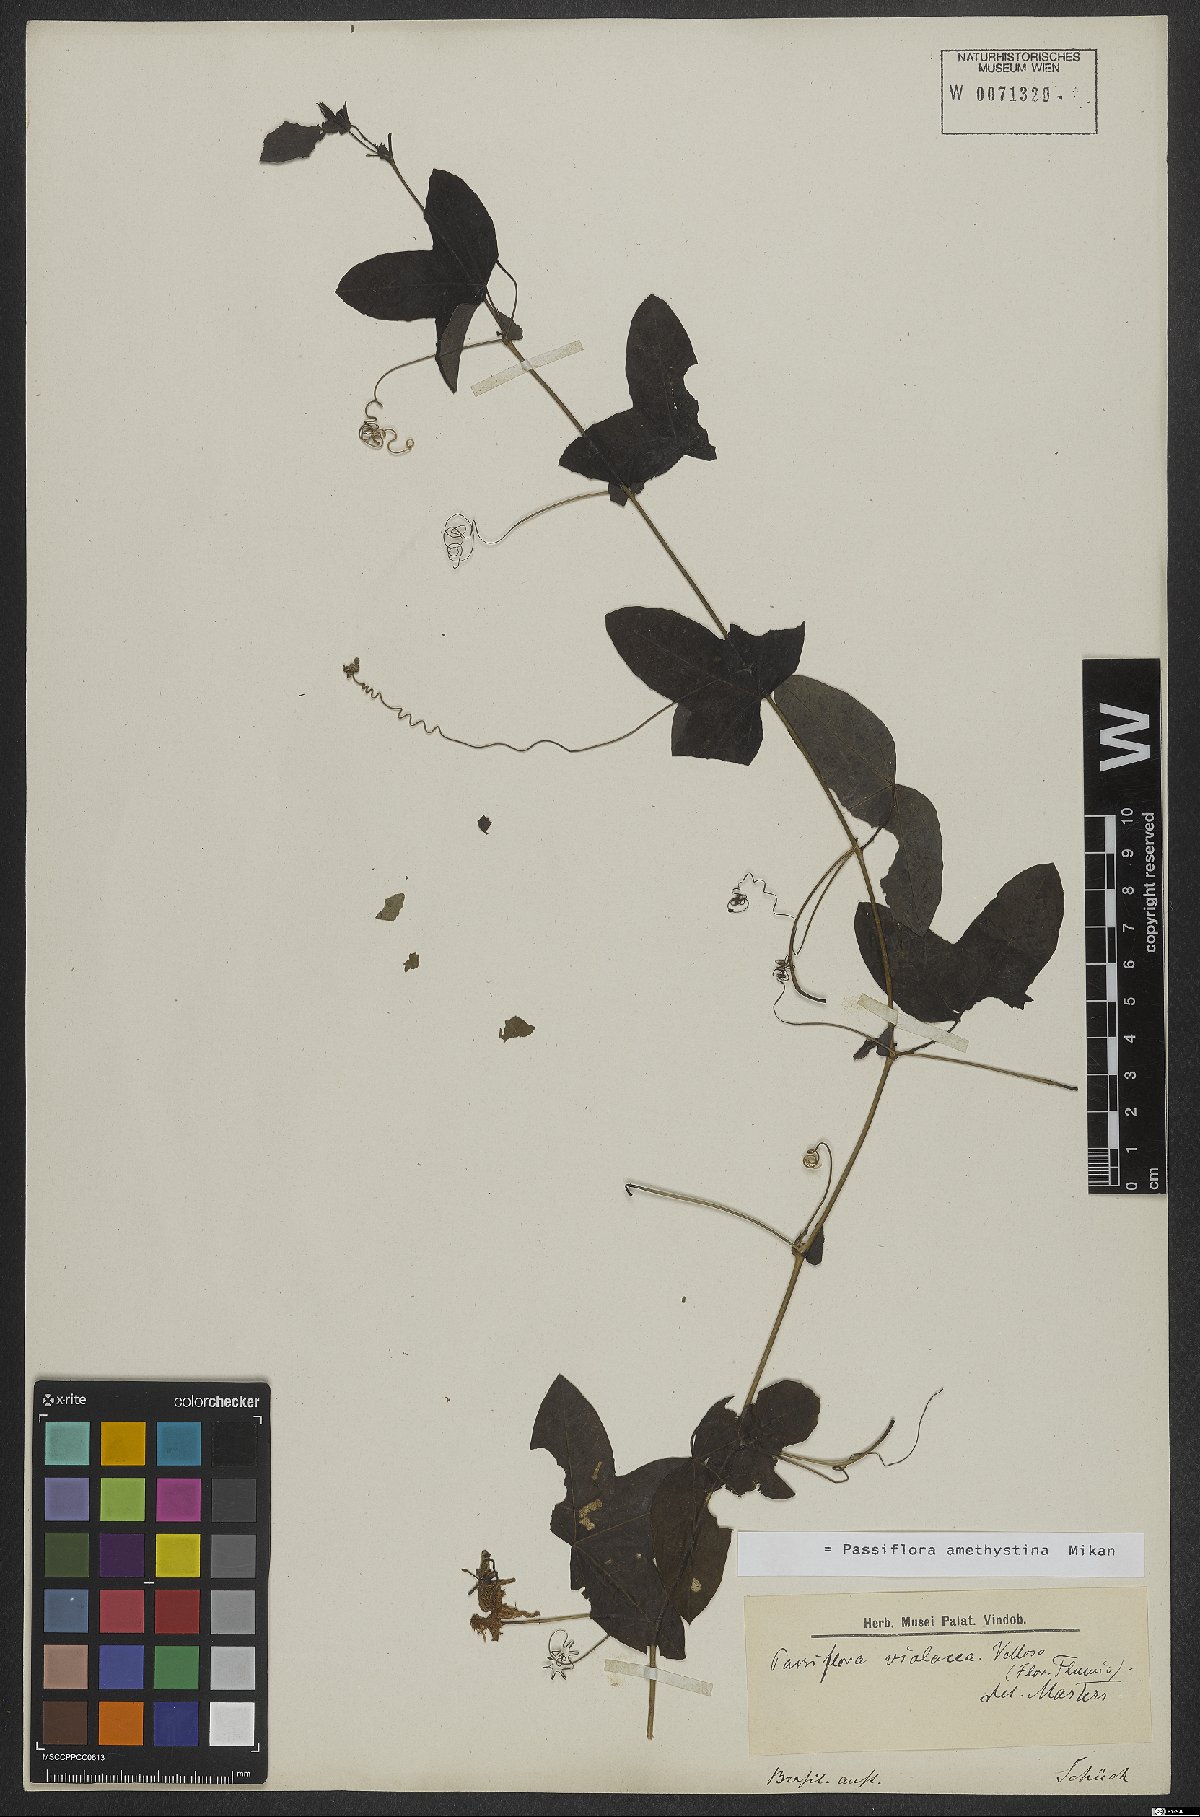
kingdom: Plantae
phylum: Tracheophyta
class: Magnoliopsida
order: Malpighiales
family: Passifloraceae
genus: Passiflora
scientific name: Passiflora amethystina
